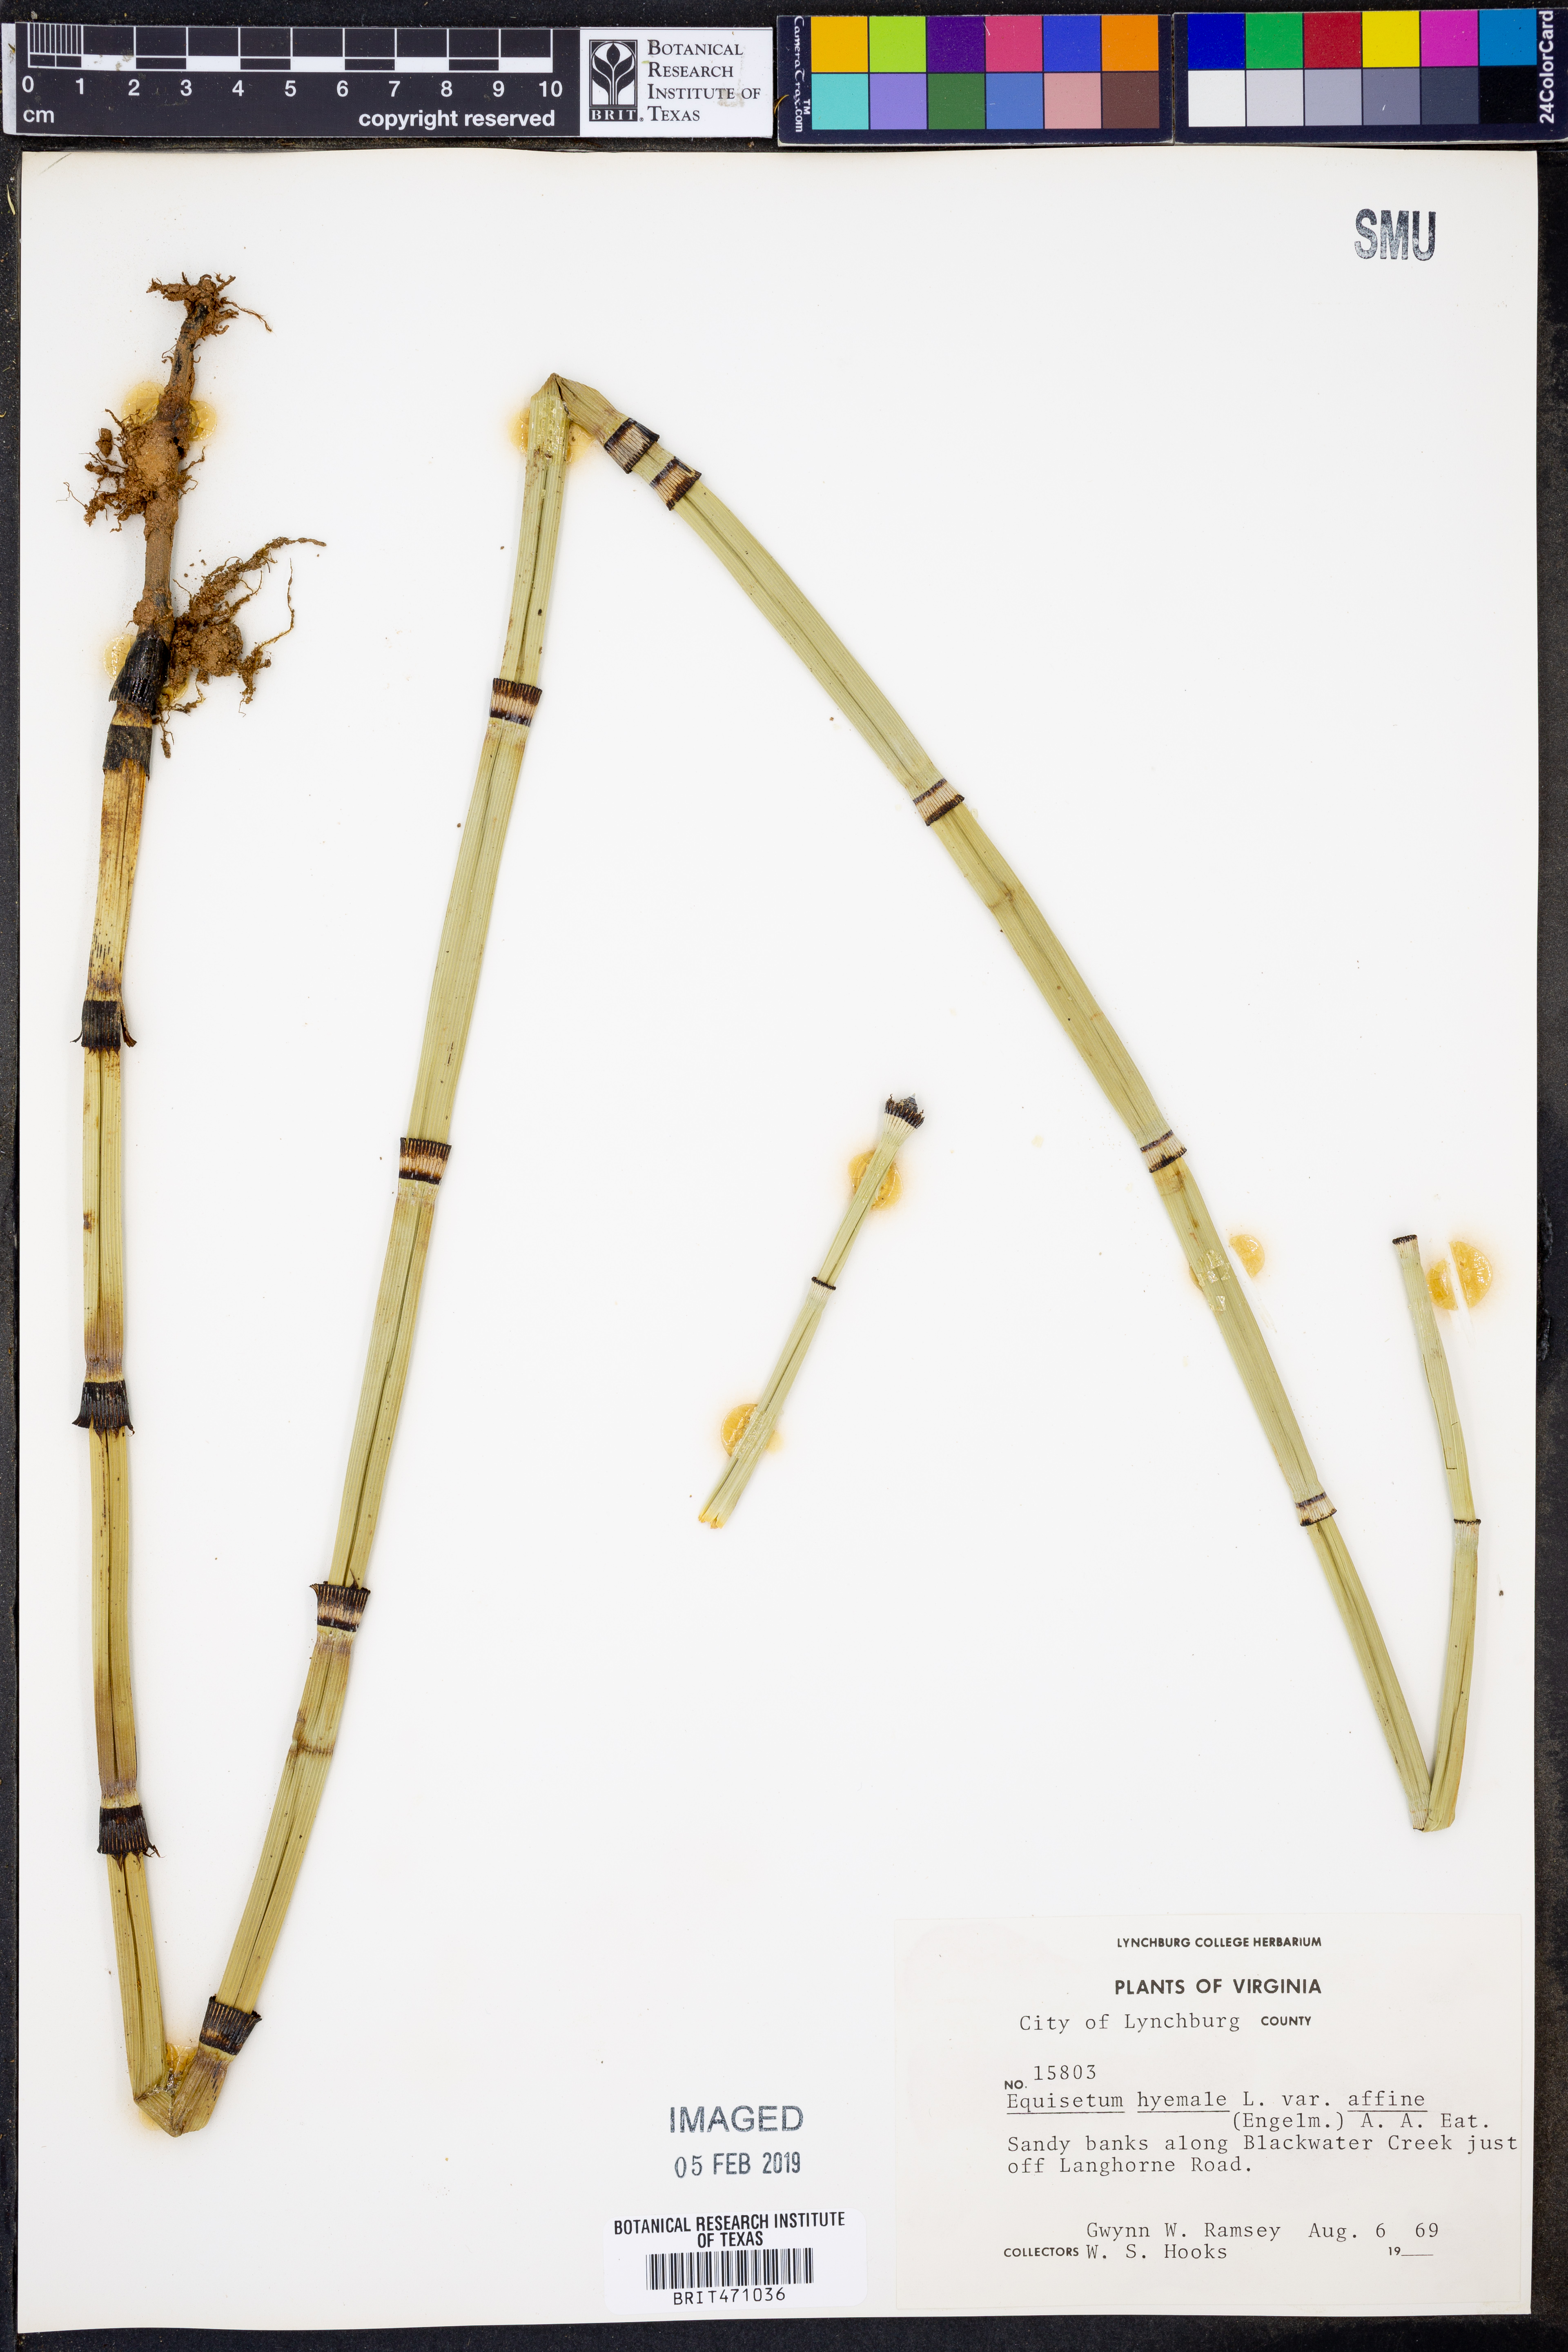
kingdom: Plantae
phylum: Tracheophyta
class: Polypodiopsida
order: Equisetales
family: Equisetaceae
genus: Equisetum
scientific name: Equisetum praealtum
